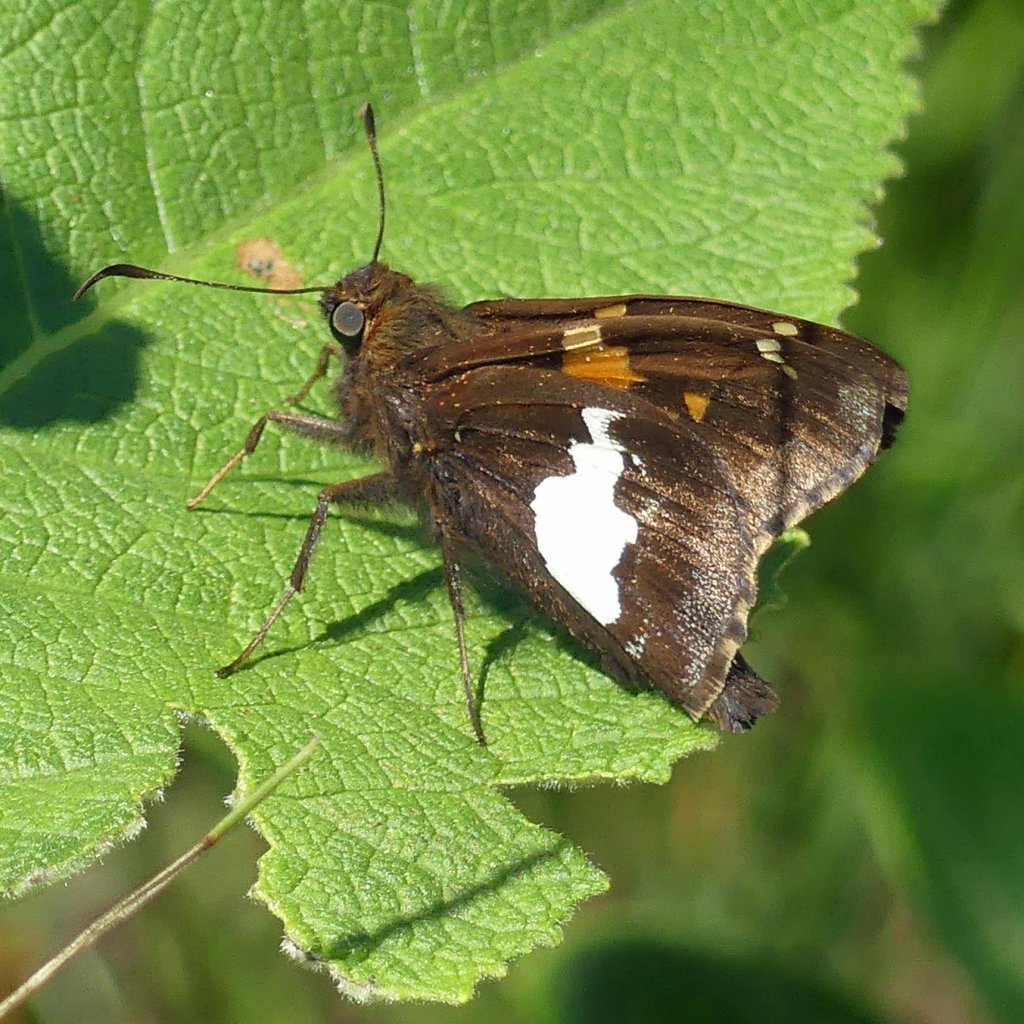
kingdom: Animalia
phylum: Arthropoda
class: Insecta
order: Lepidoptera
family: Hesperiidae
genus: Epargyreus
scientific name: Epargyreus clarus
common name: Silver-spotted Skipper
